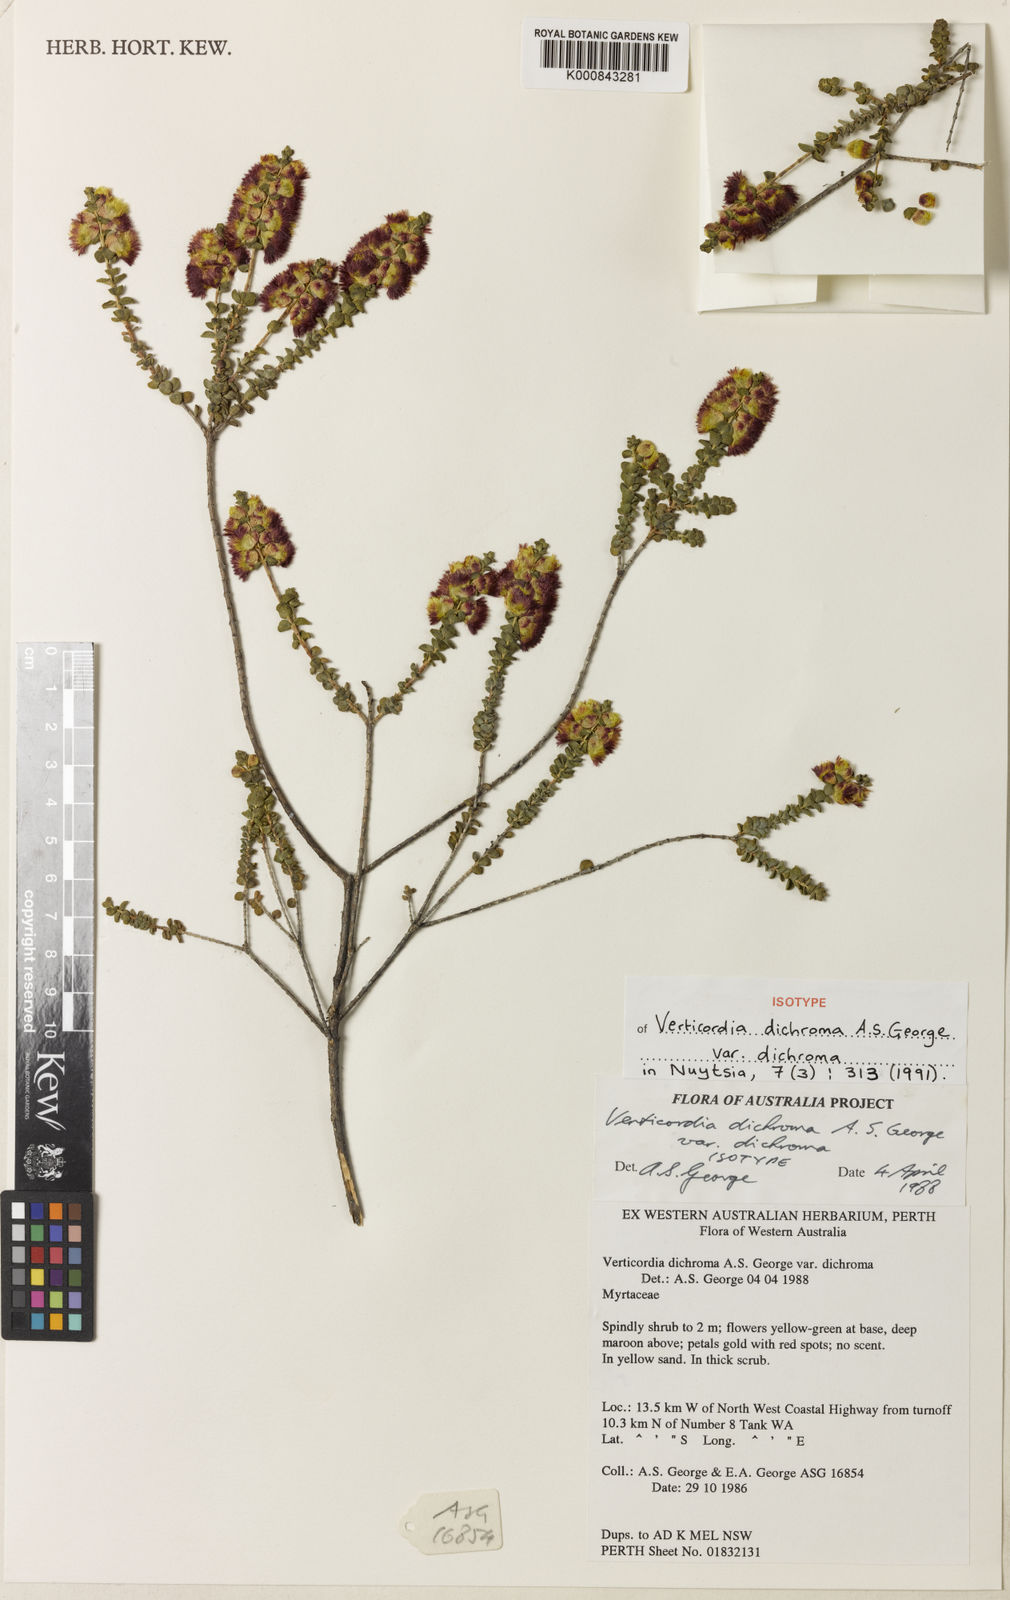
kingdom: Plantae
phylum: Tracheophyta
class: Magnoliopsida
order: Myrtales
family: Myrtaceae
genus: Verticordia
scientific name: Verticordia dichroma
